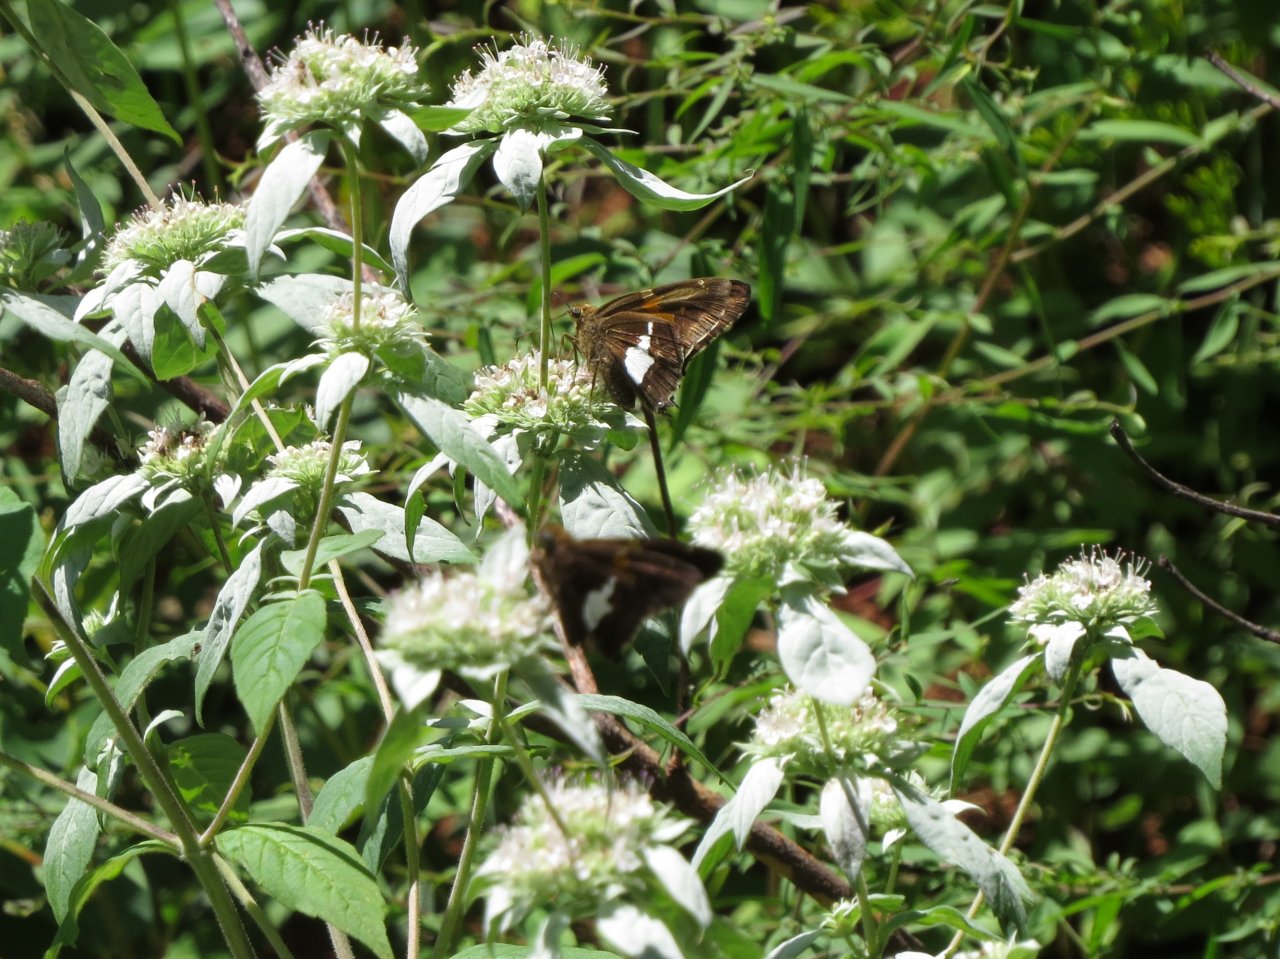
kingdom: Animalia
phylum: Arthropoda
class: Insecta
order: Lepidoptera
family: Hesperiidae
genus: Epargyreus
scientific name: Epargyreus clarus
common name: Silver-spotted Skipper
